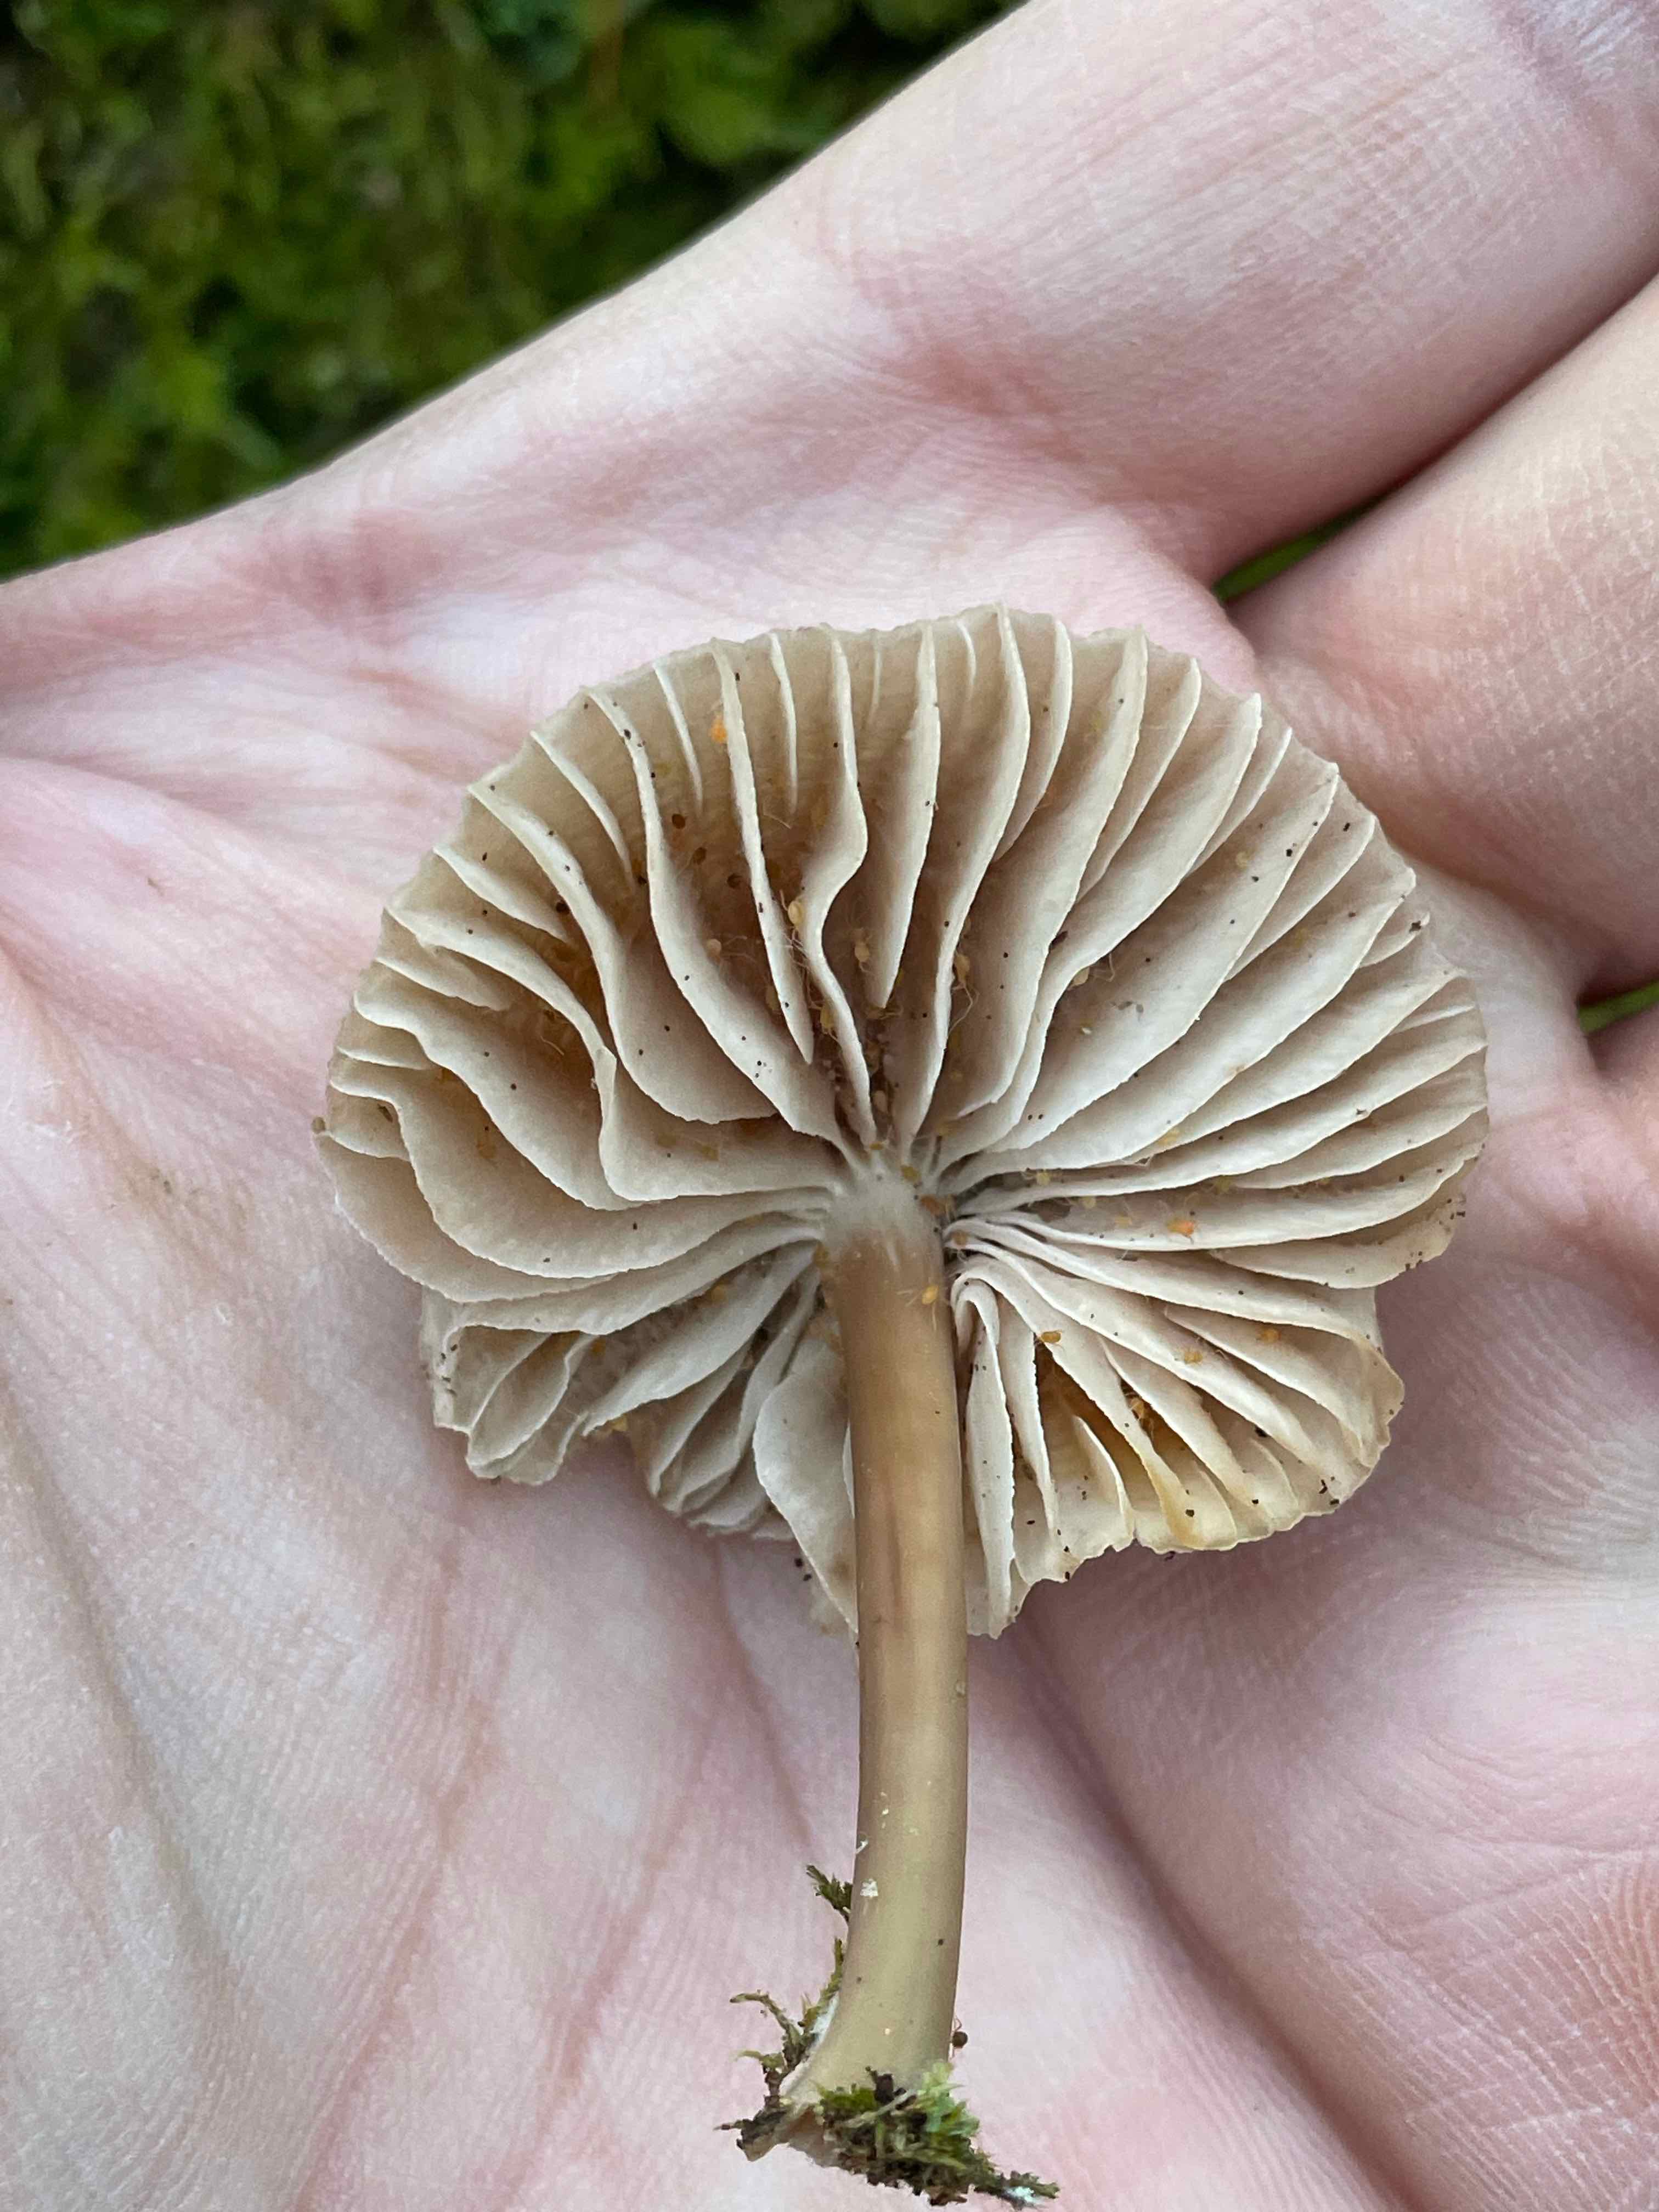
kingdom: Fungi
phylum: Basidiomycota
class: Agaricomycetes
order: Agaricales
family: Mycenaceae
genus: Mycena
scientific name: Mycena galericulata
